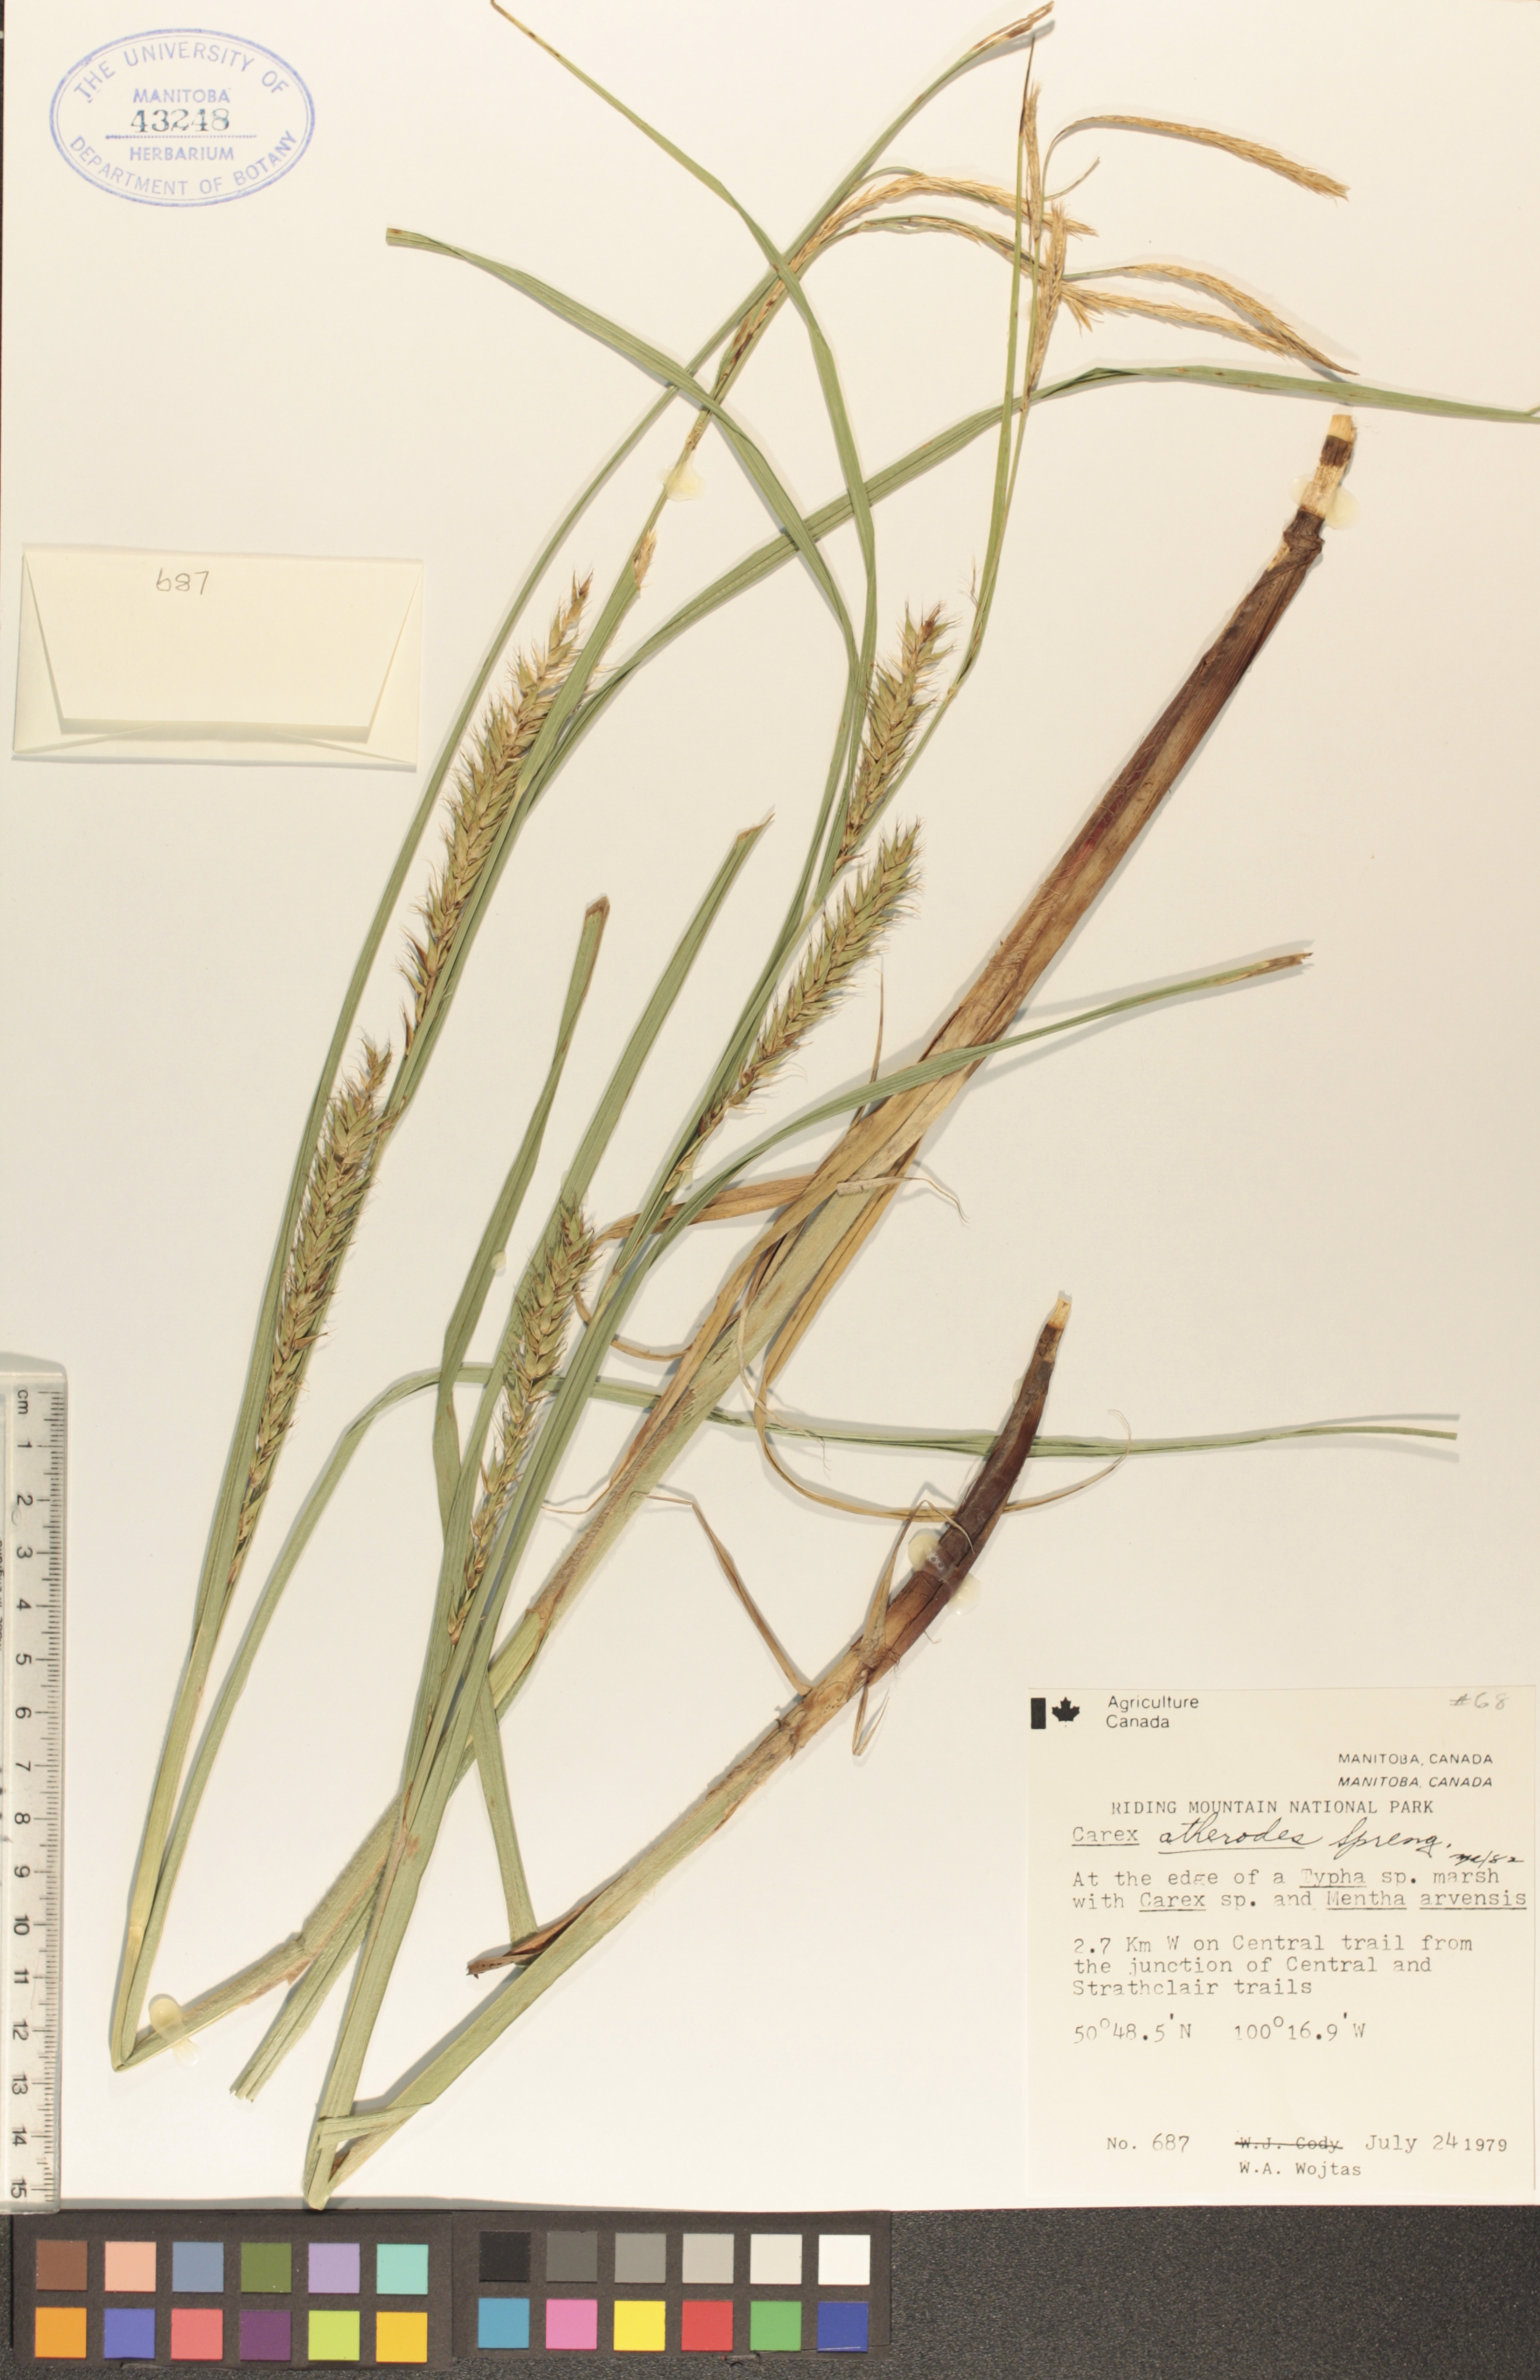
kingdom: Plantae
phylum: Tracheophyta
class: Liliopsida
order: Poales
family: Cyperaceae
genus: Carex
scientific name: Carex atherodes
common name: Wheat sedge
